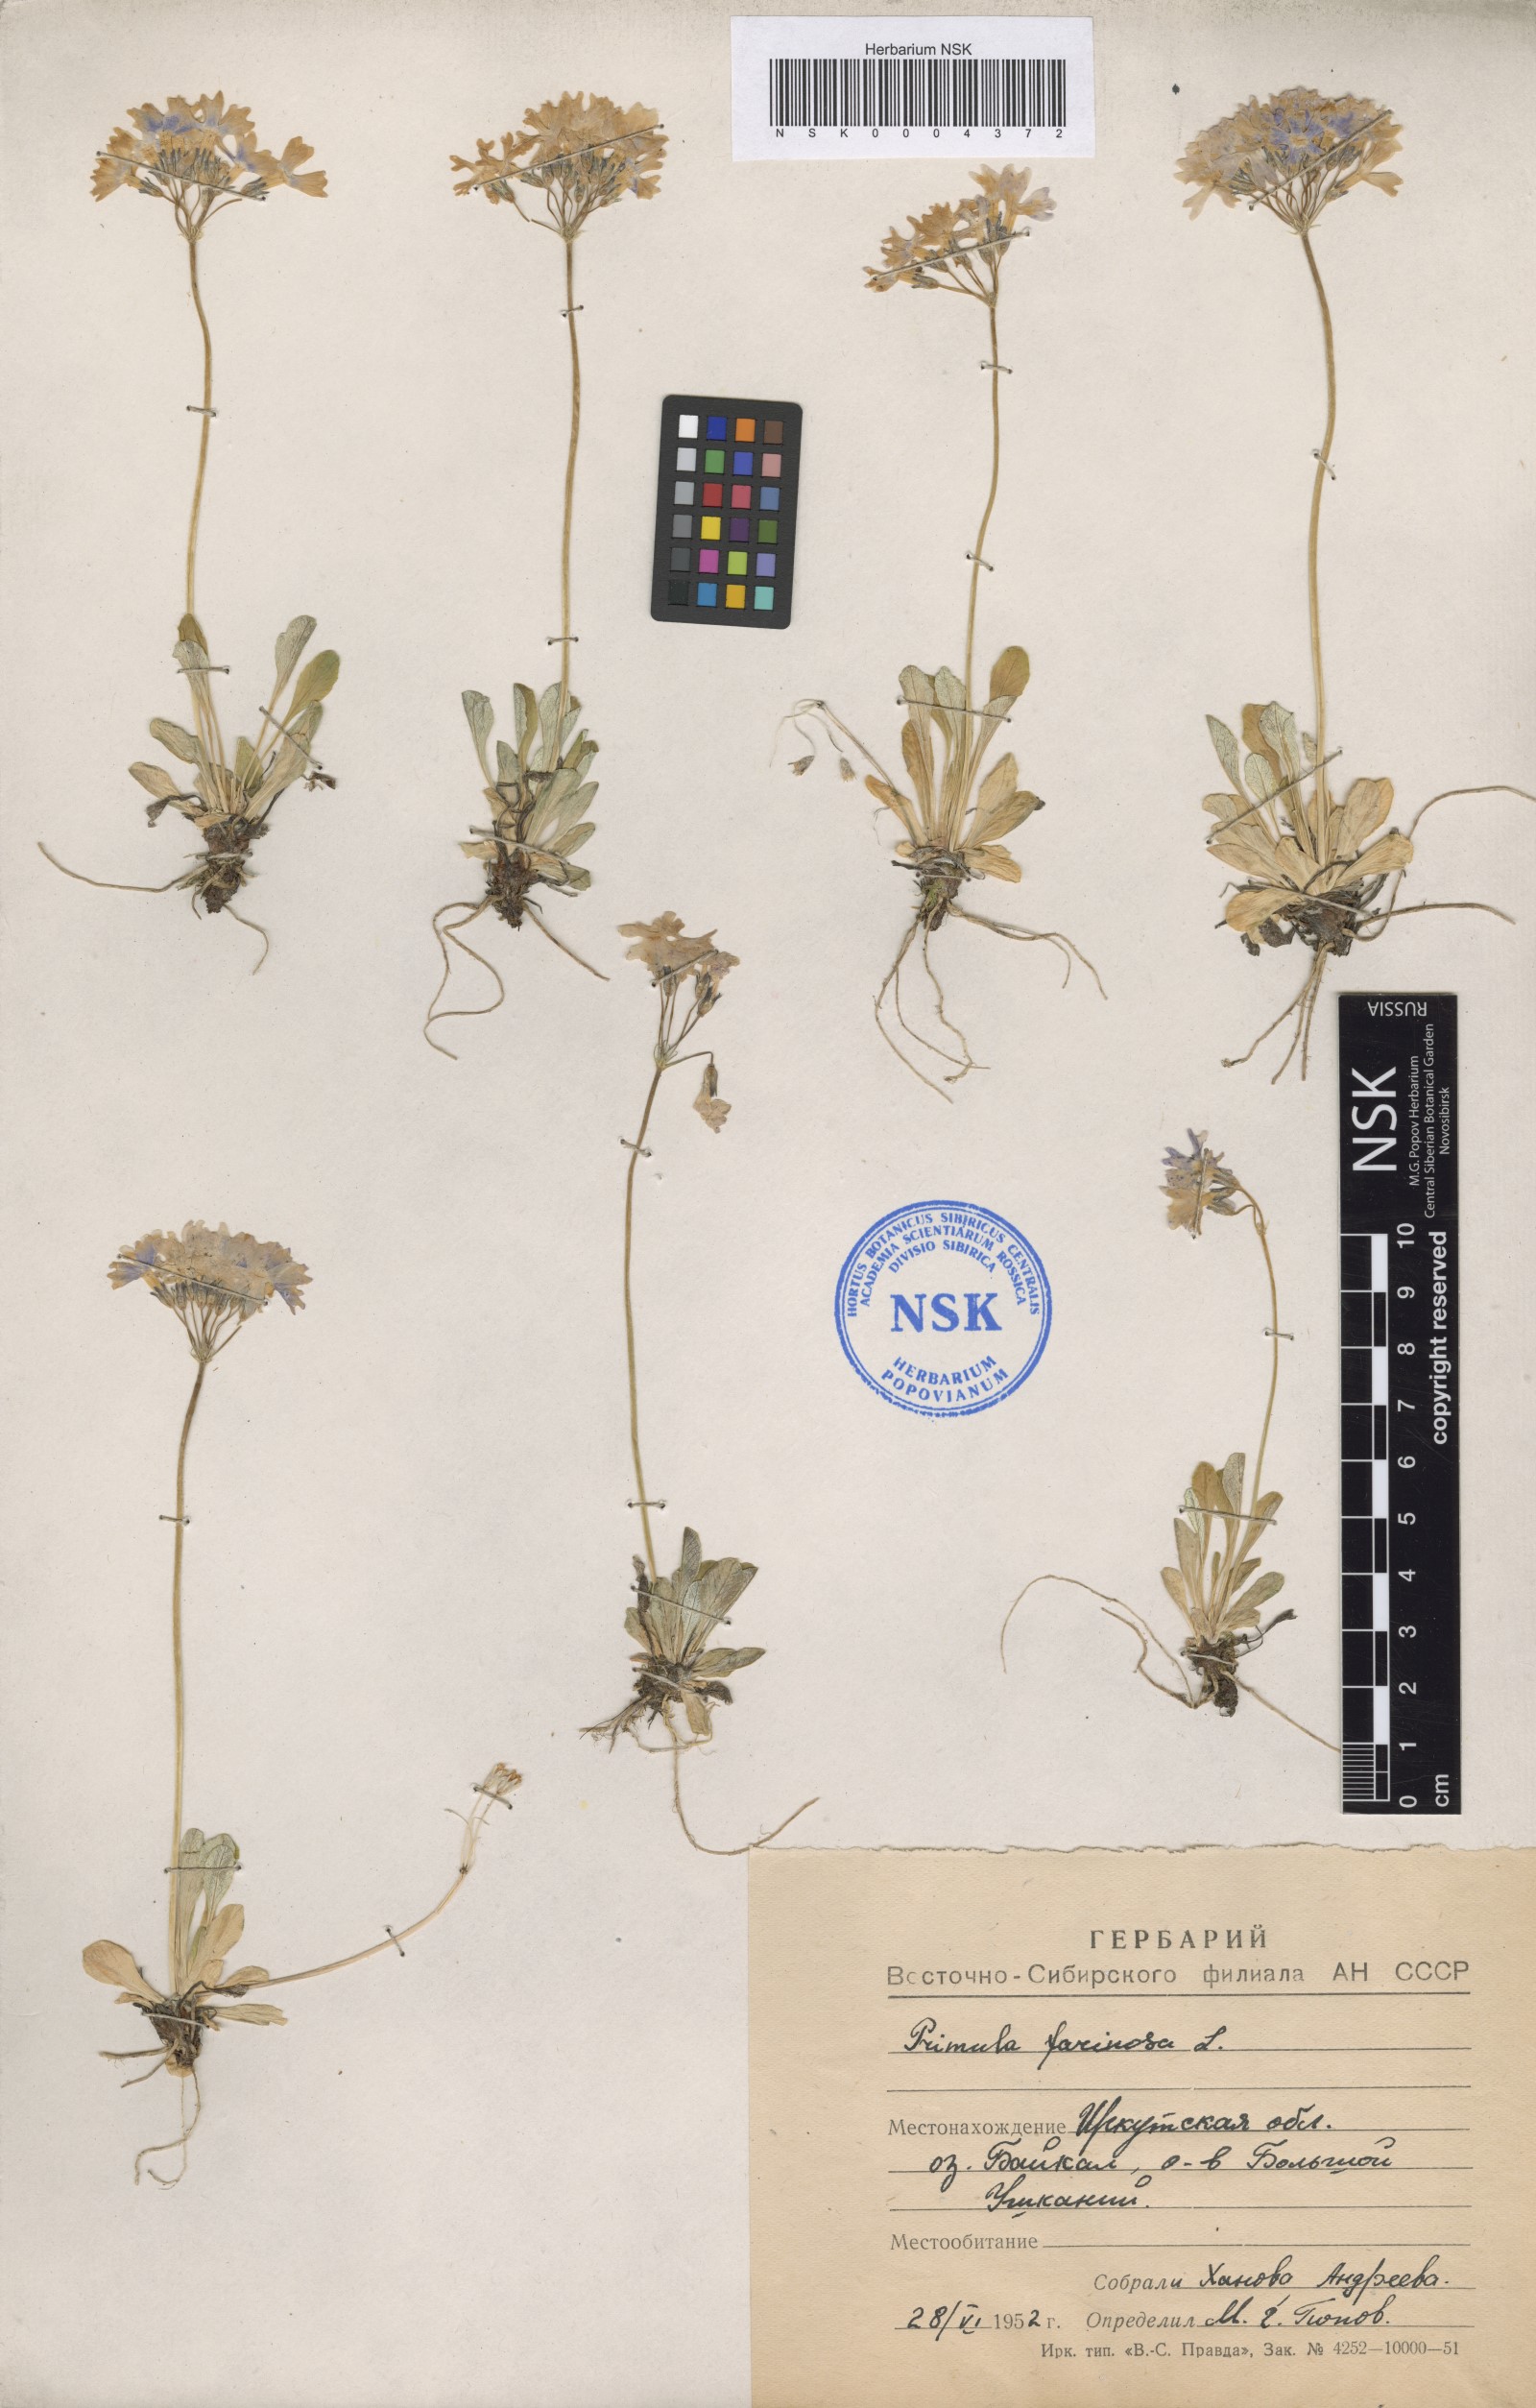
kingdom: Plantae
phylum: Tracheophyta
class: Magnoliopsida
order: Ericales
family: Primulaceae
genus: Primula
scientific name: Primula farinosa
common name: Bird's-eye primrose
